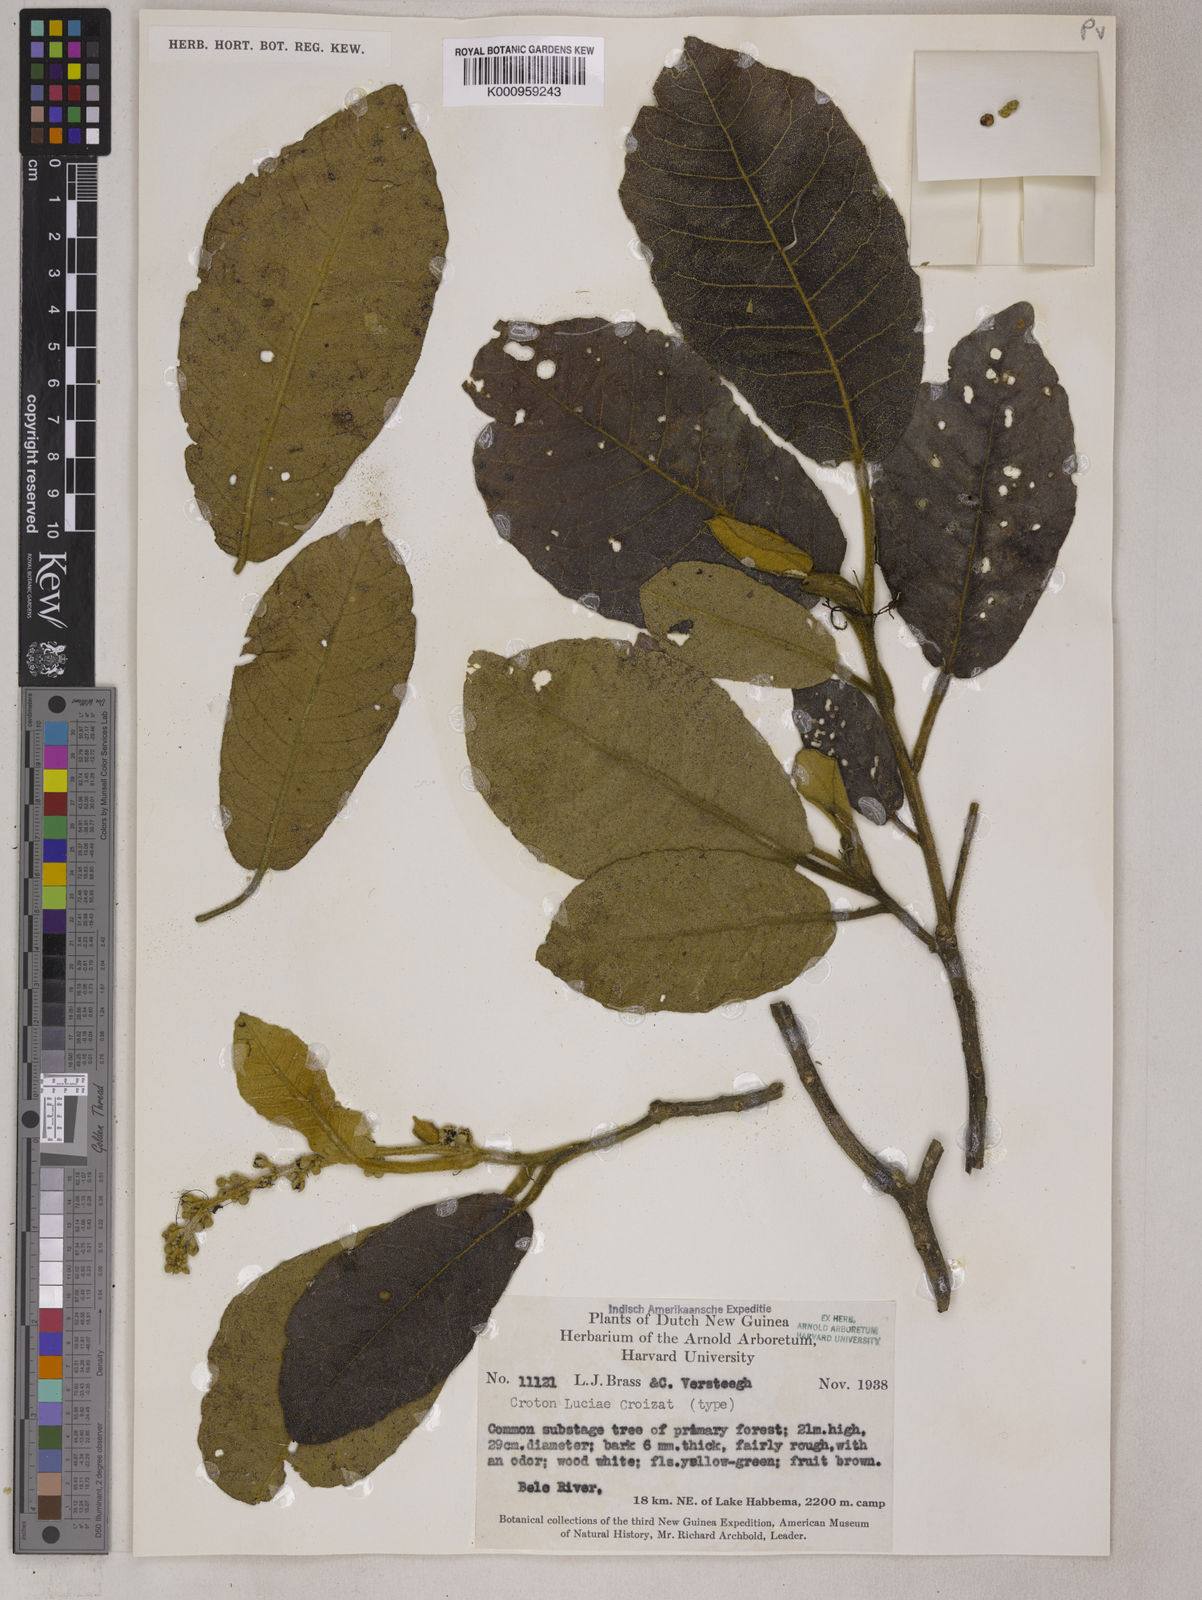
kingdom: Plantae
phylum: Tracheophyta
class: Magnoliopsida
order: Malpighiales
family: Euphorbiaceae
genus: Croton
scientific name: Croton luciae
